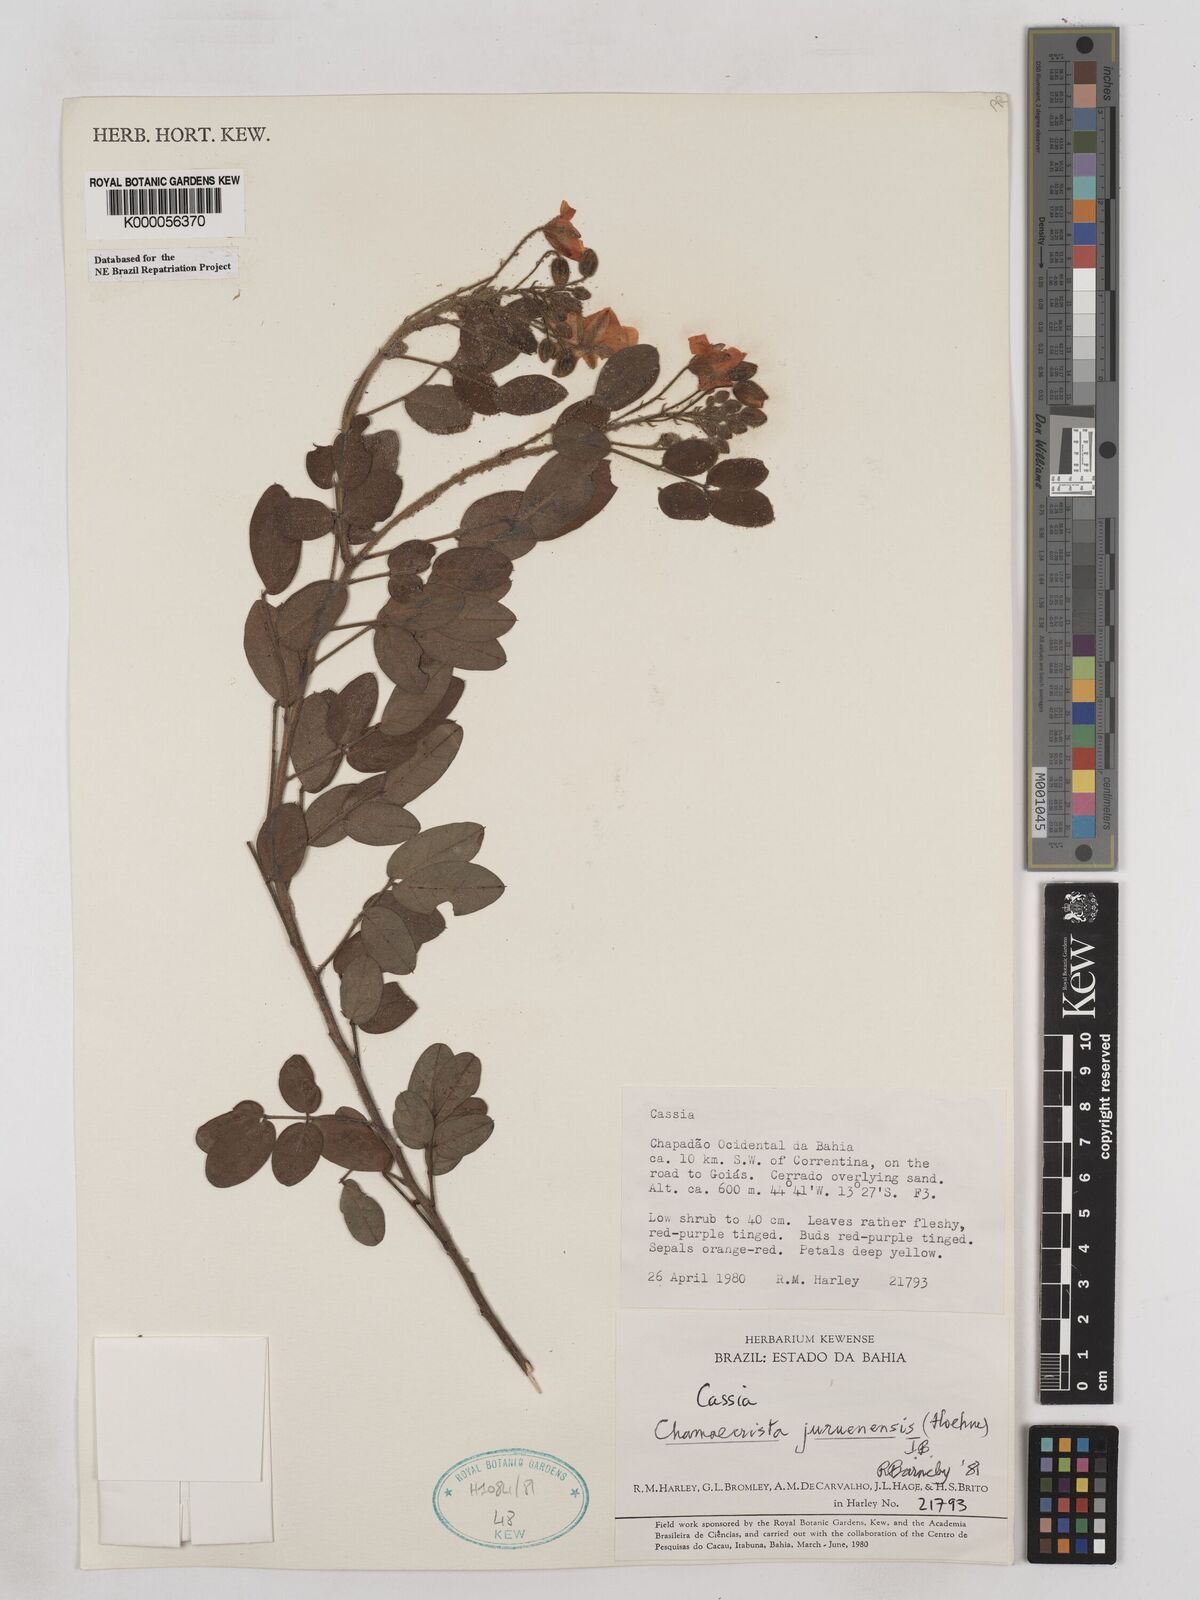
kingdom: Plantae
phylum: Tracheophyta
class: Magnoliopsida
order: Fabales
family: Fabaceae
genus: Chamaecrista
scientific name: Chamaecrista juruenensis
